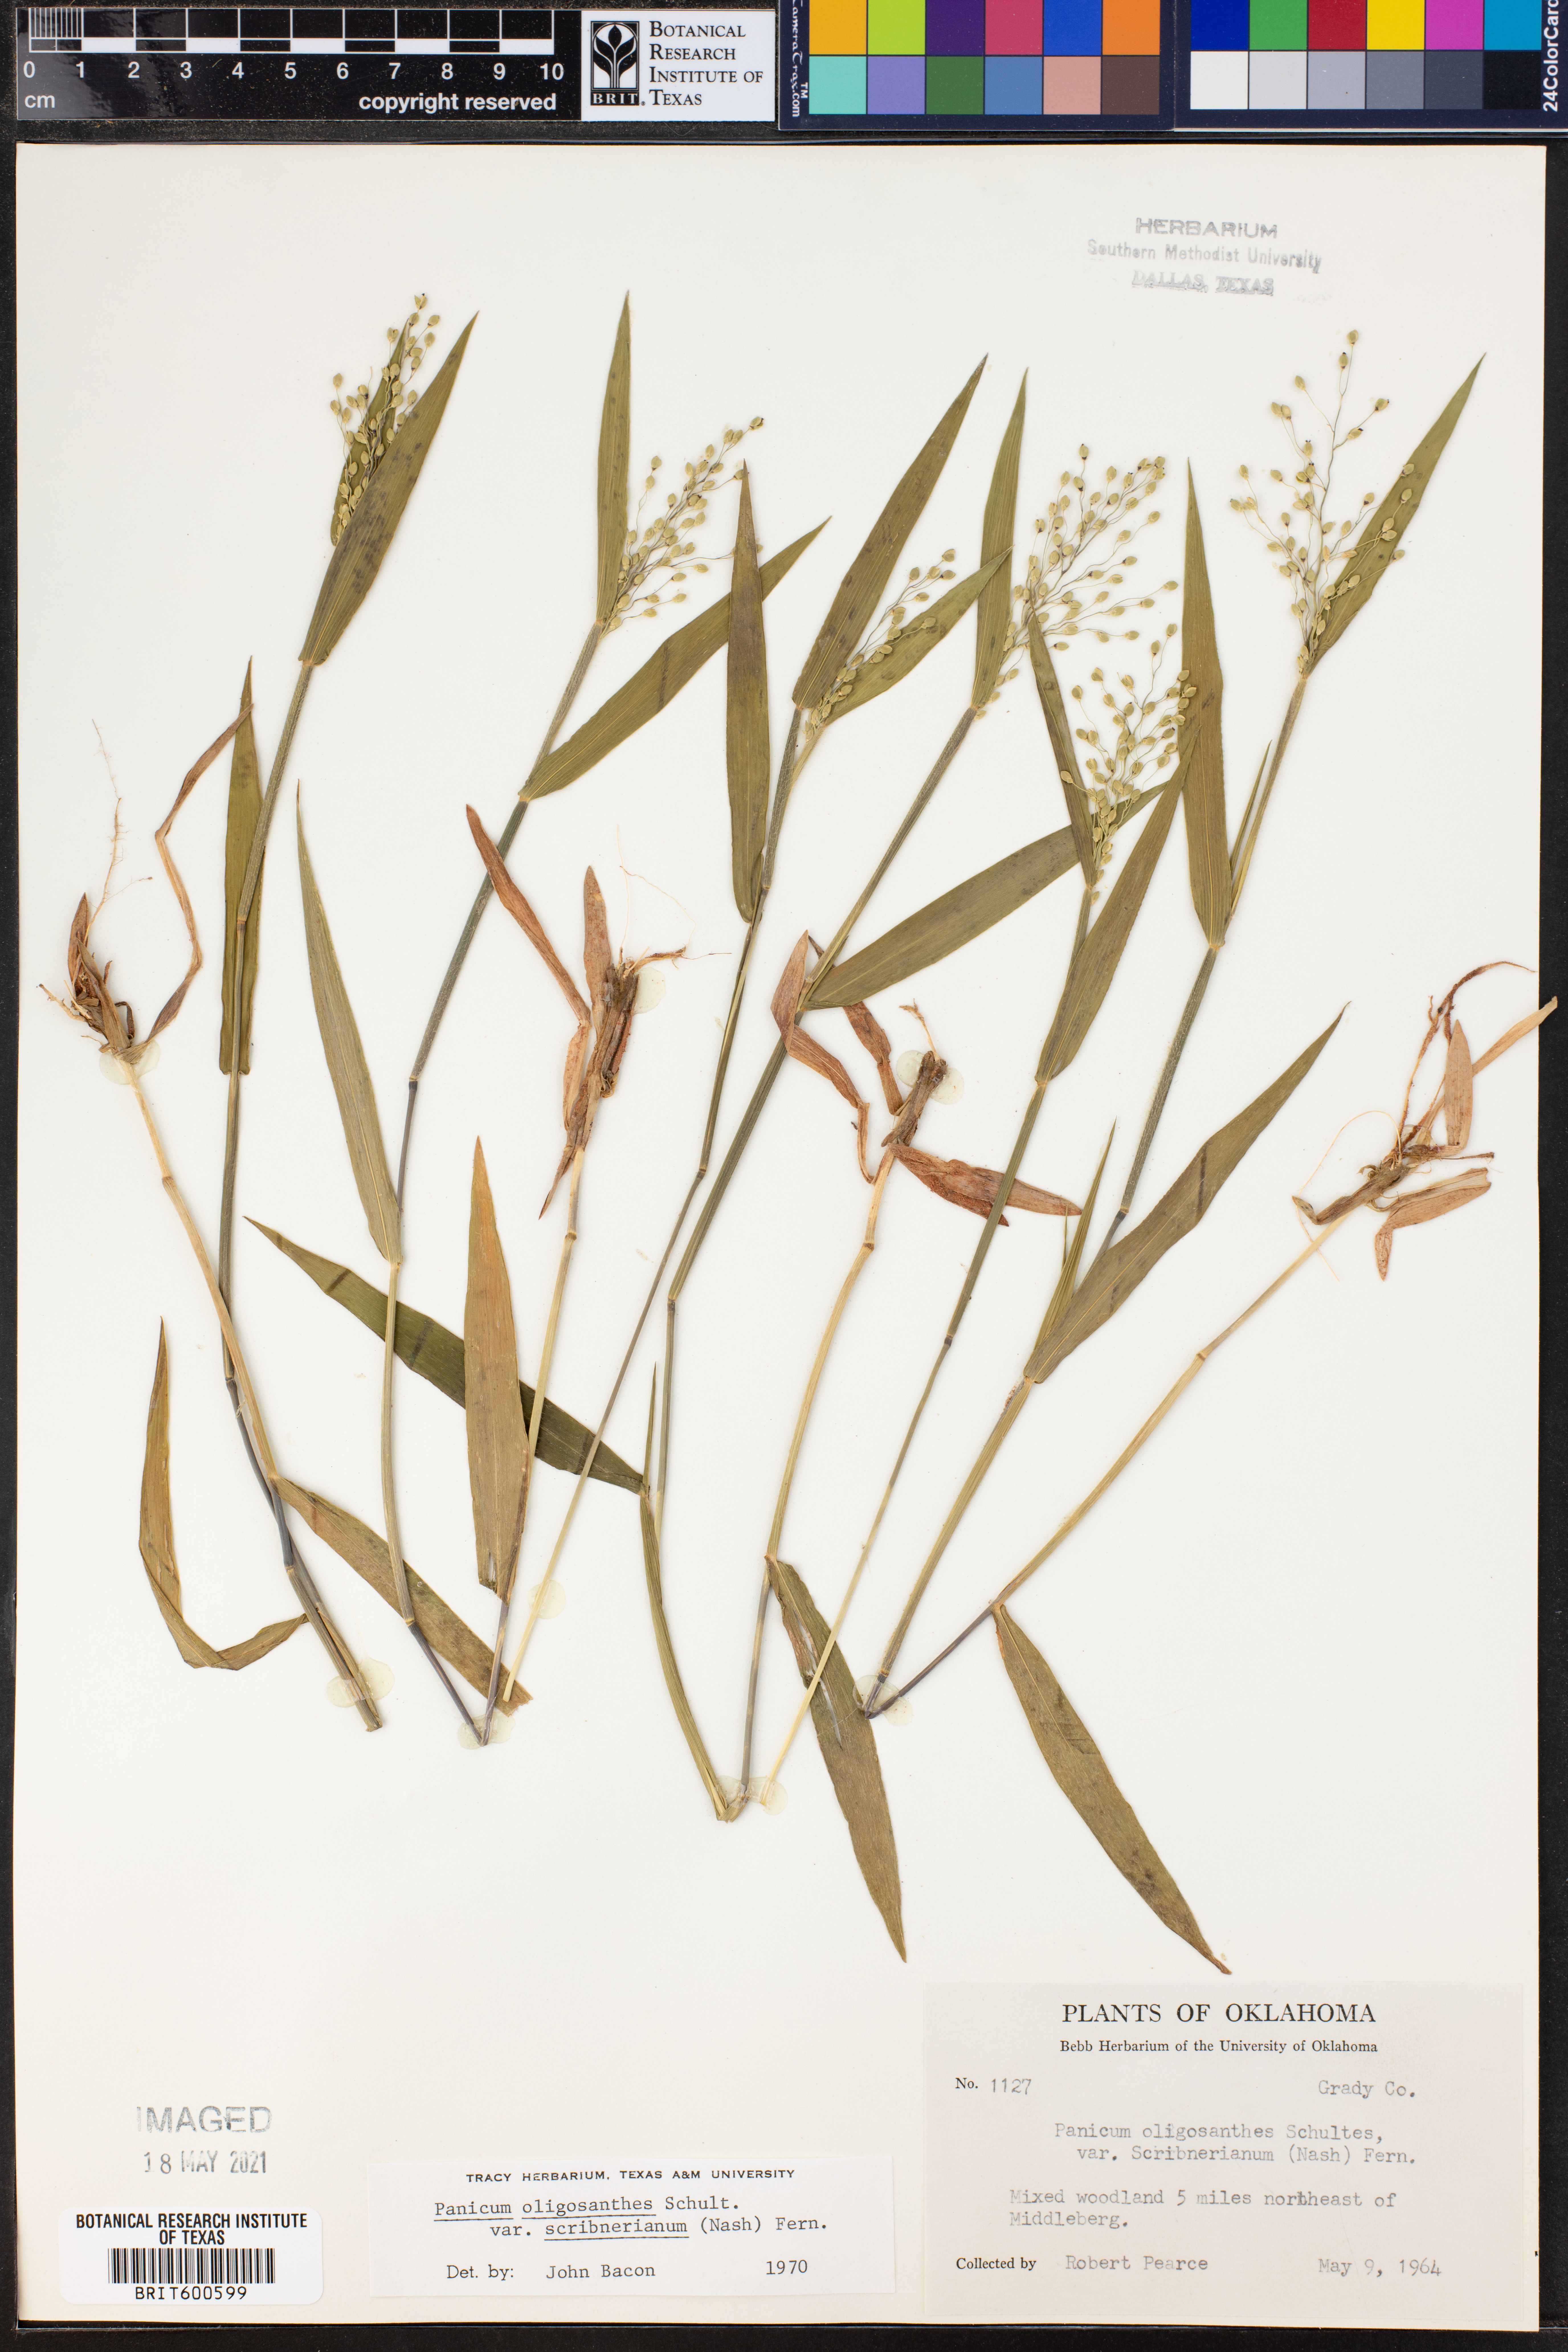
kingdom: Plantae
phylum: Tracheophyta
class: Liliopsida
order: Poales
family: Poaceae
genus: Dichanthelium
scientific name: Dichanthelium scribnerianum
